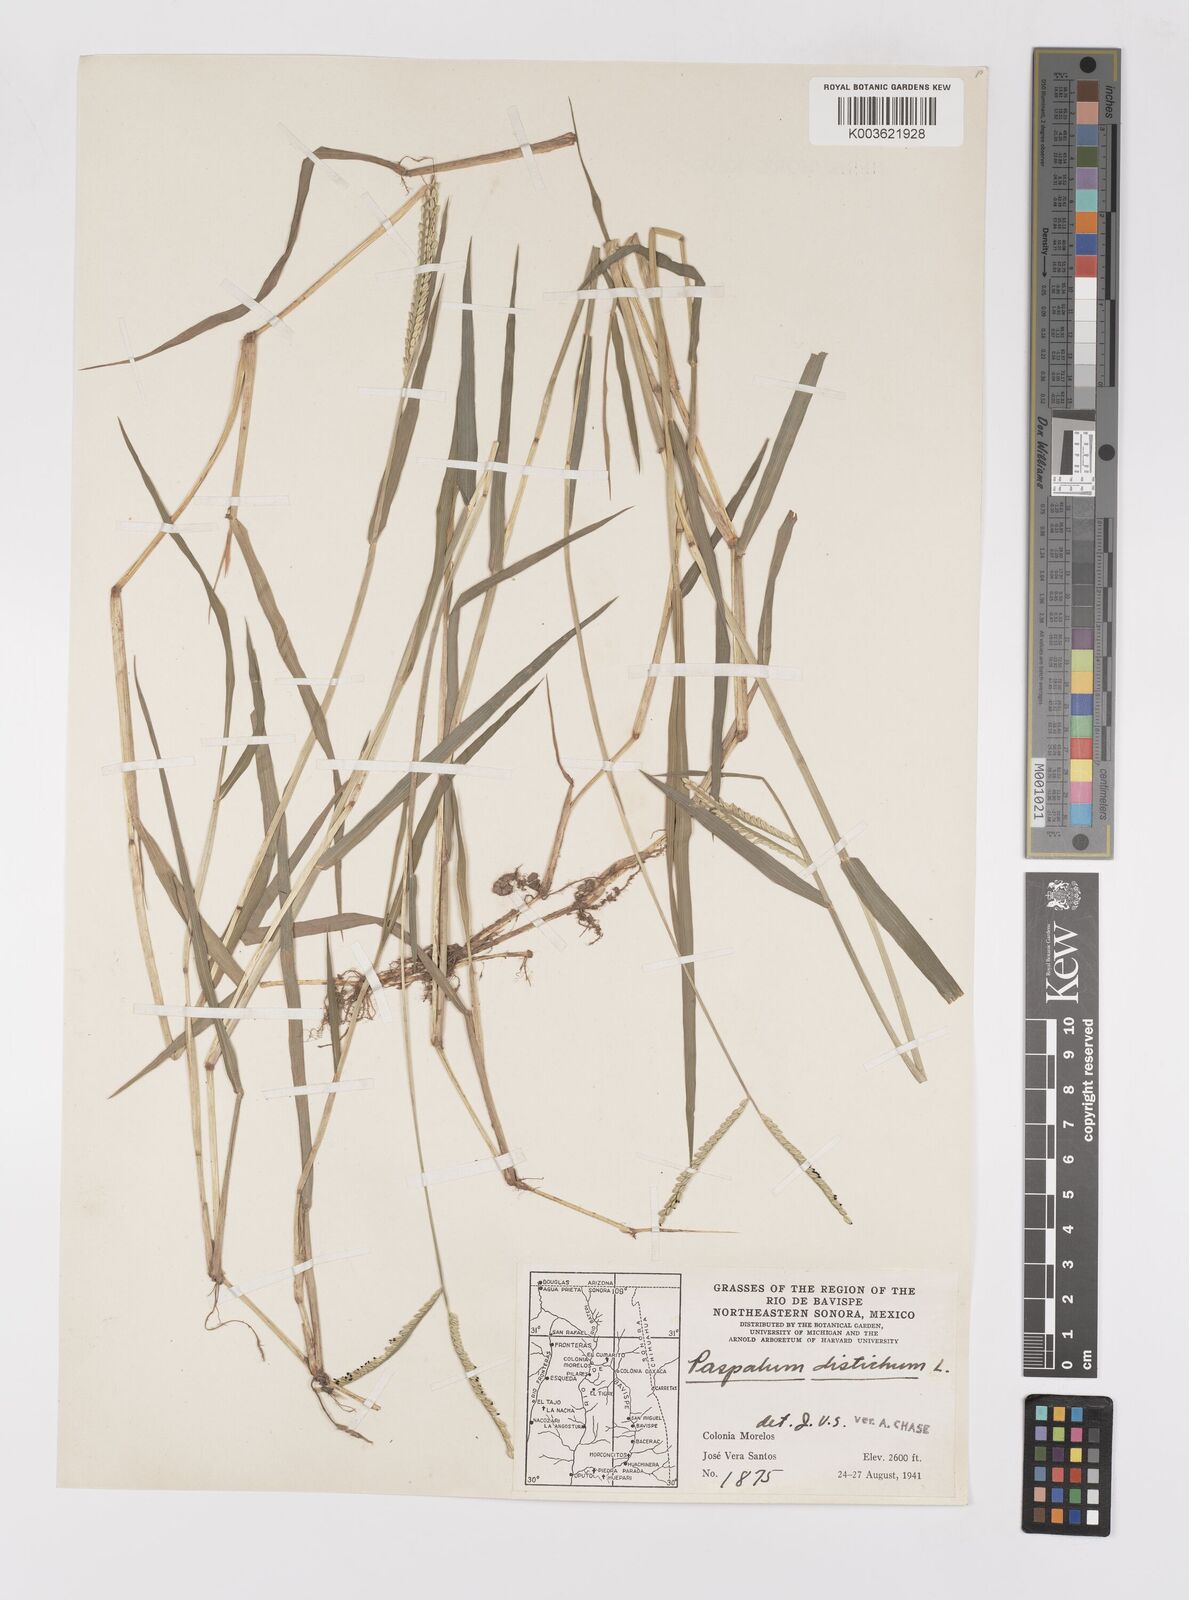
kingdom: Plantae
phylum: Tracheophyta
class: Liliopsida
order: Poales
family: Poaceae
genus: Paspalum
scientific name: Paspalum distichum
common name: Knotgrass
